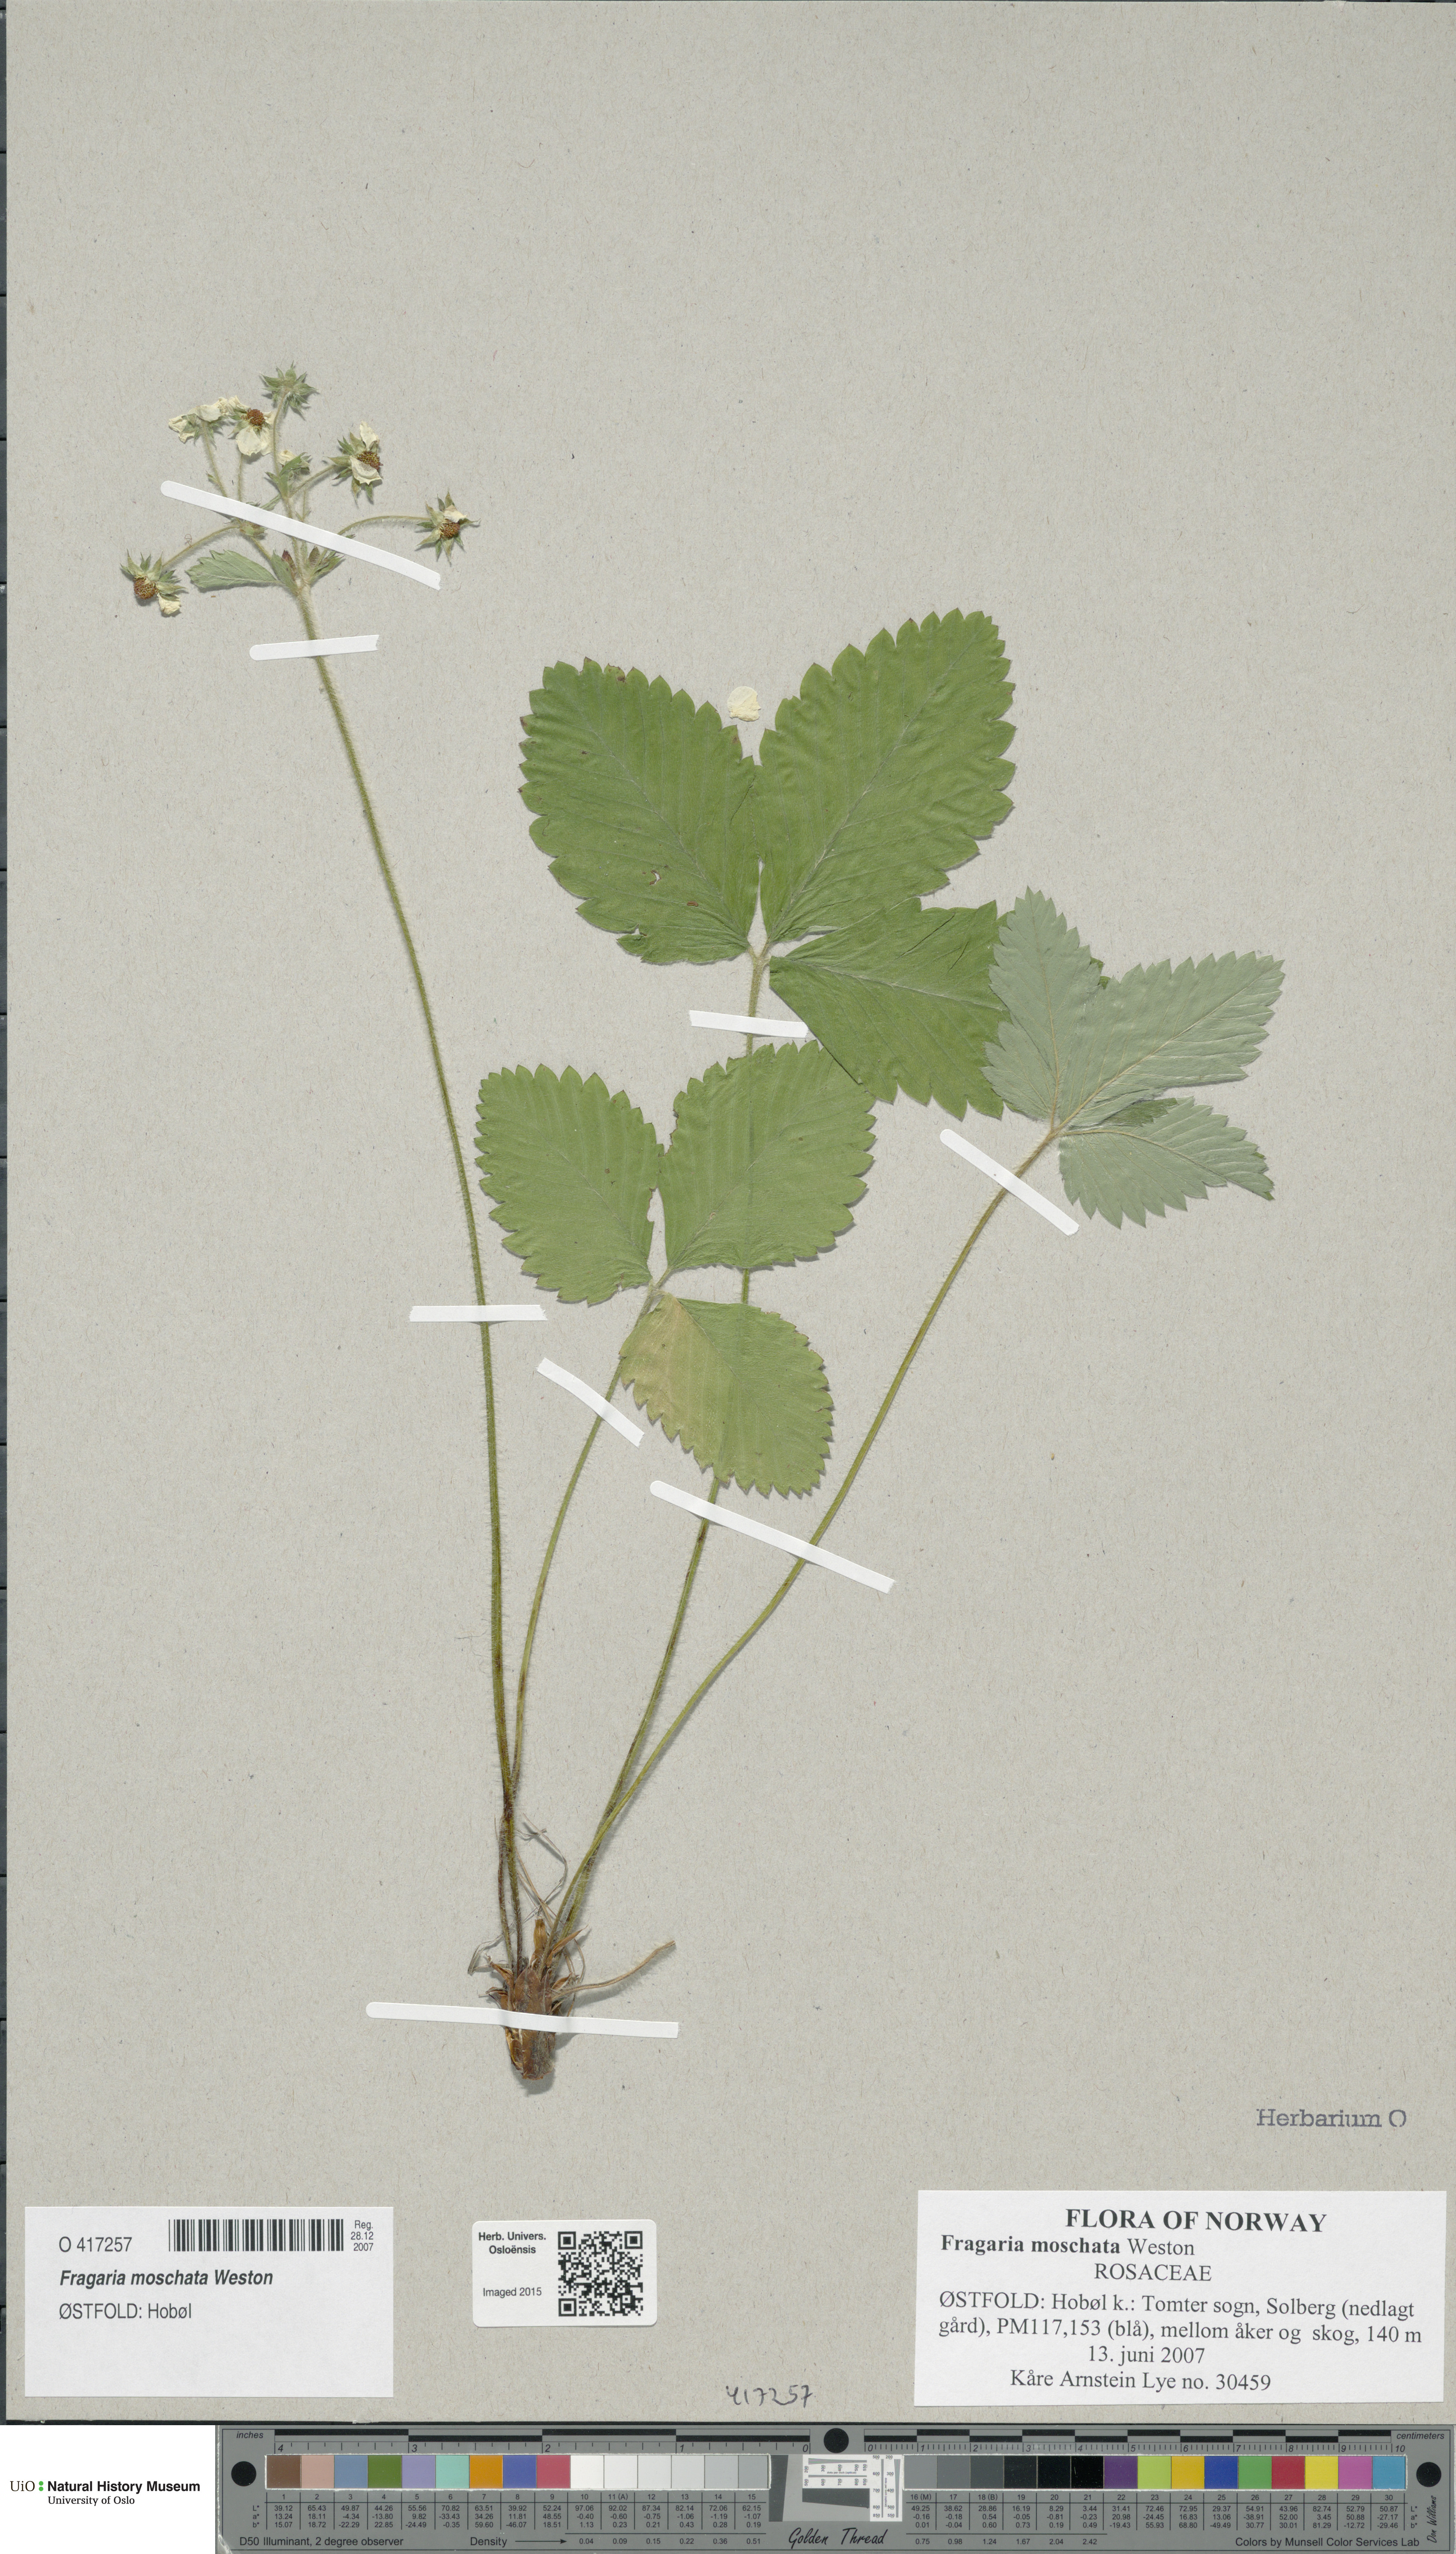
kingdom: Plantae
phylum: Tracheophyta
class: Magnoliopsida
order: Rosales
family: Rosaceae
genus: Fragaria
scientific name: Fragaria moschata
